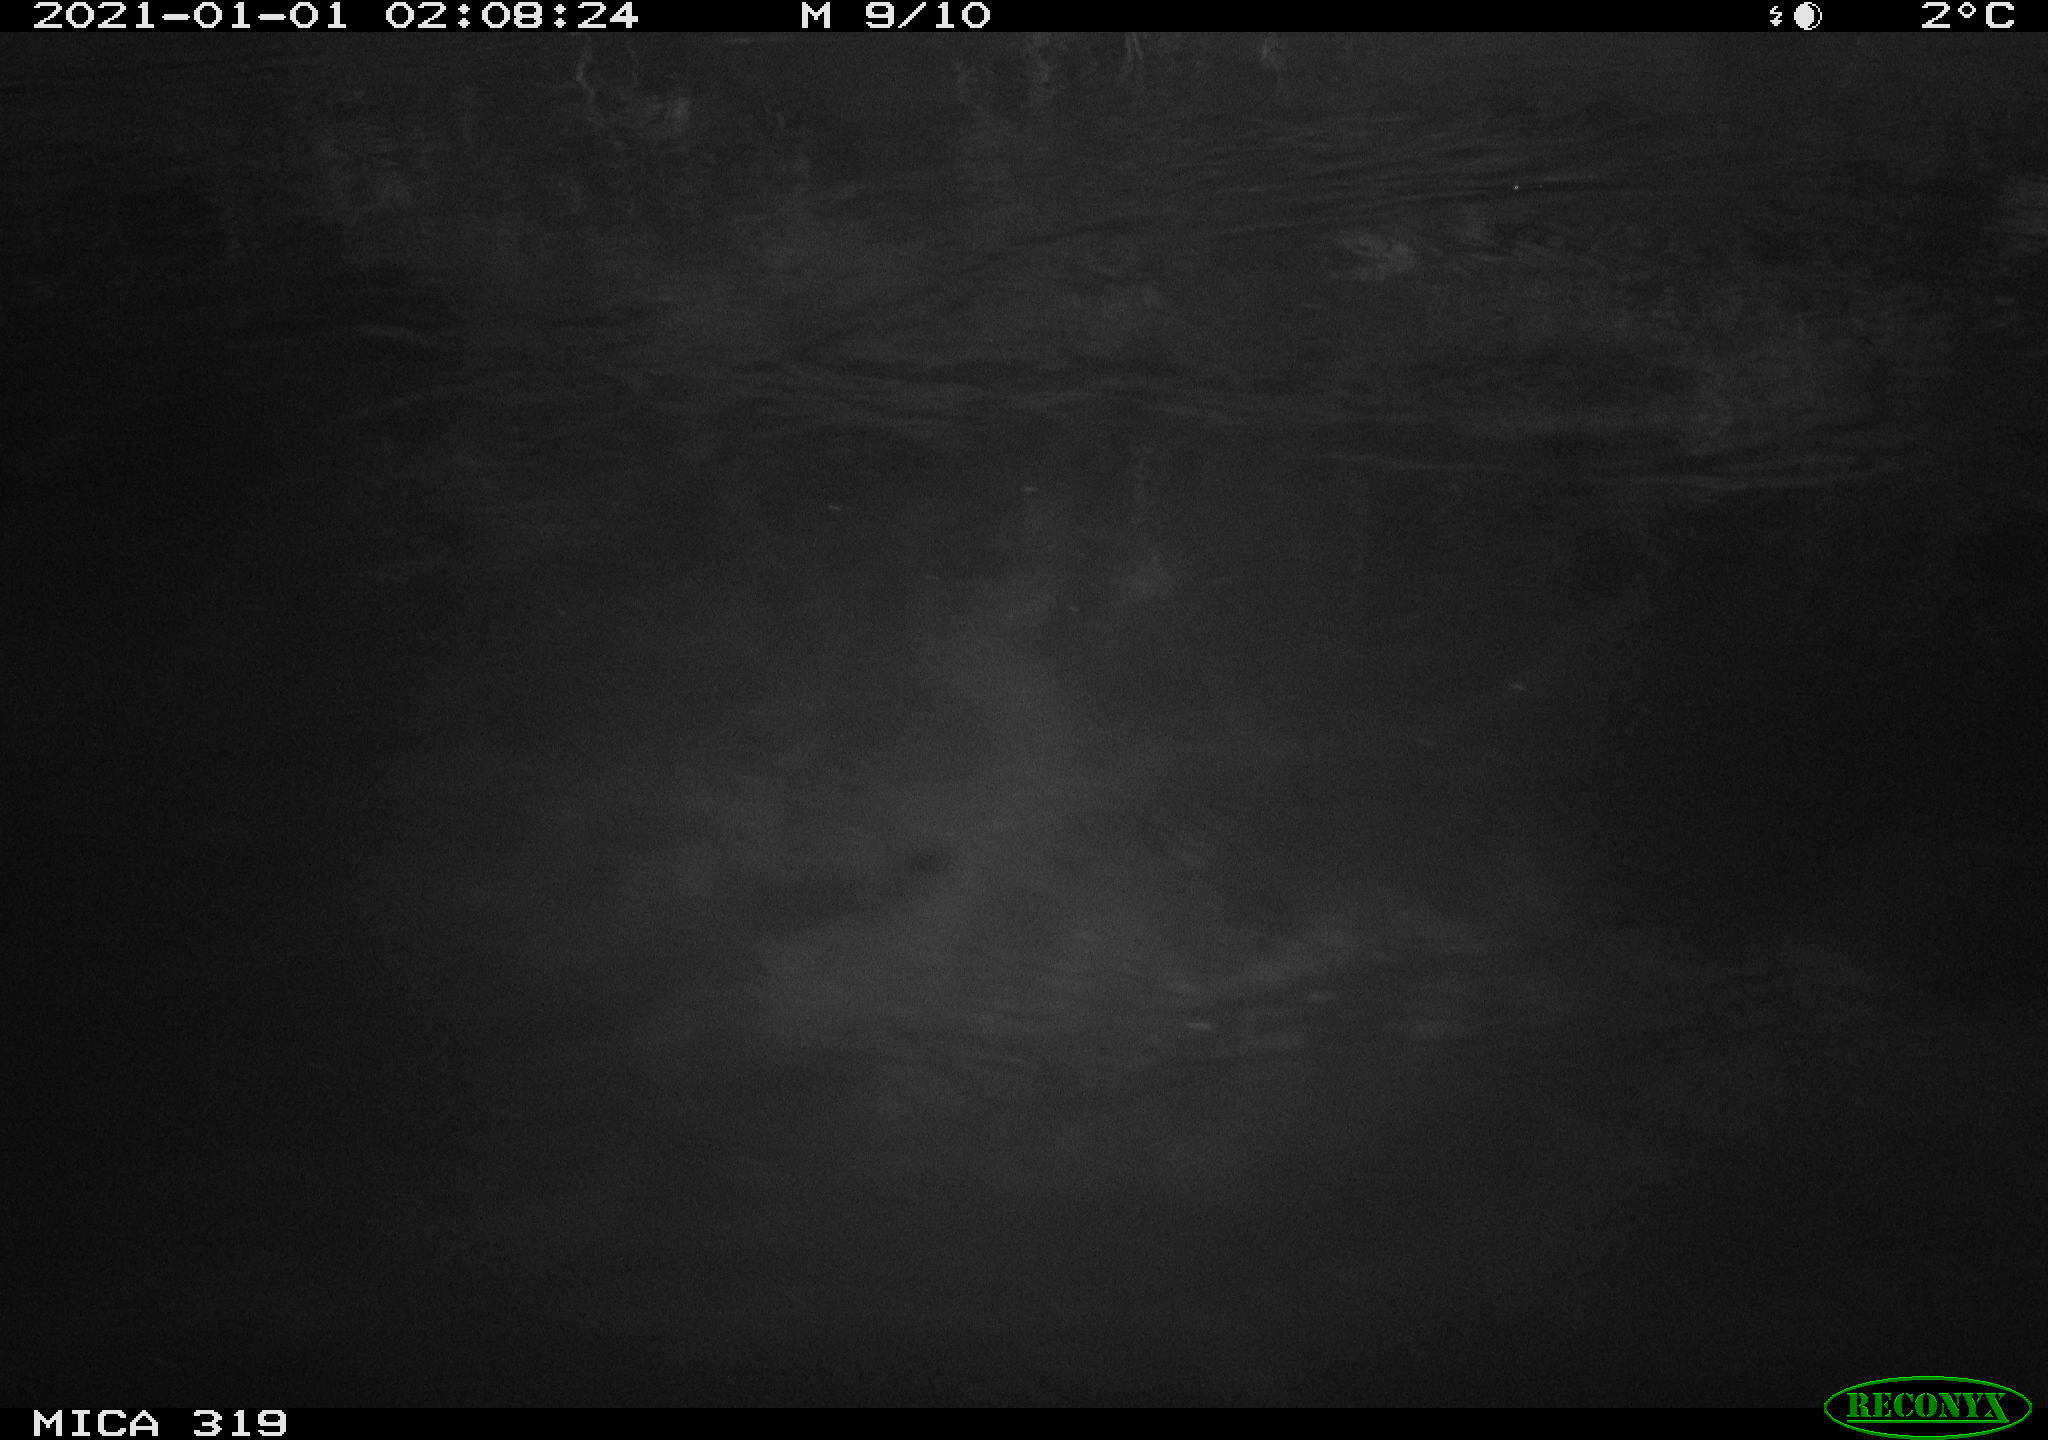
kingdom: Animalia
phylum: Chordata
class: Aves
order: Anseriformes
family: Anatidae
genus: Anas
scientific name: Anas platyrhynchos
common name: Mallard
